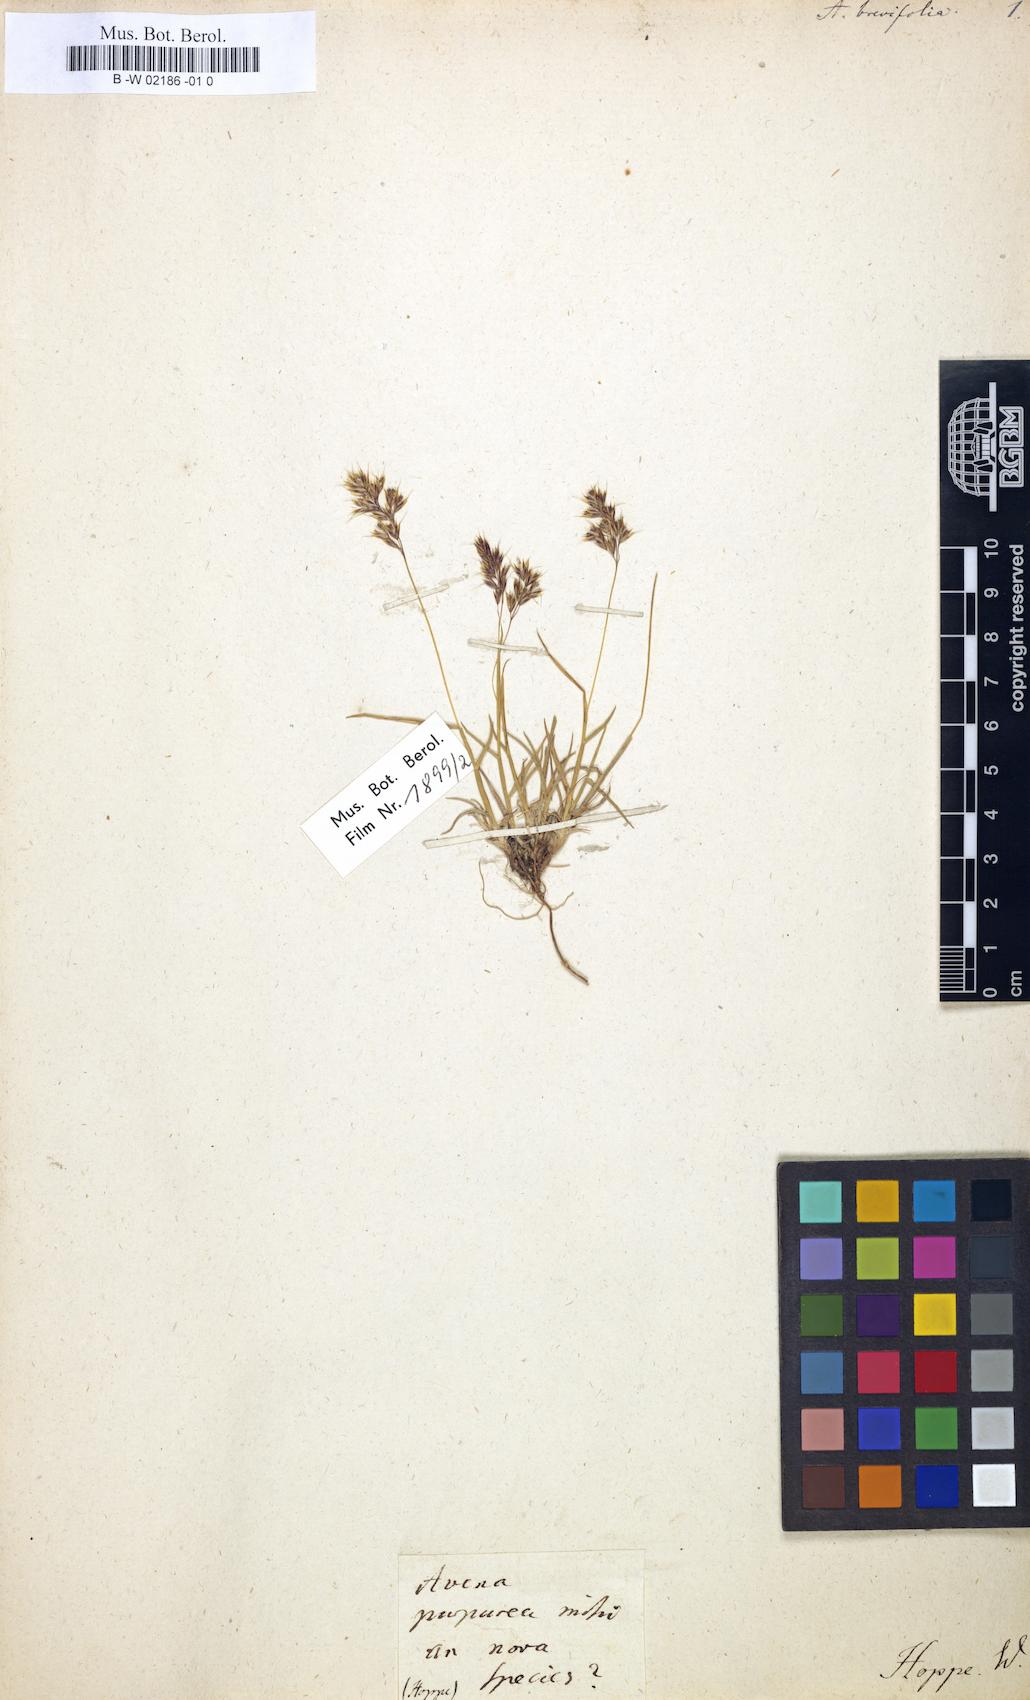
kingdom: Plantae
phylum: Tracheophyta
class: Liliopsida
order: Poales
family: Poaceae
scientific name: Poaceae
